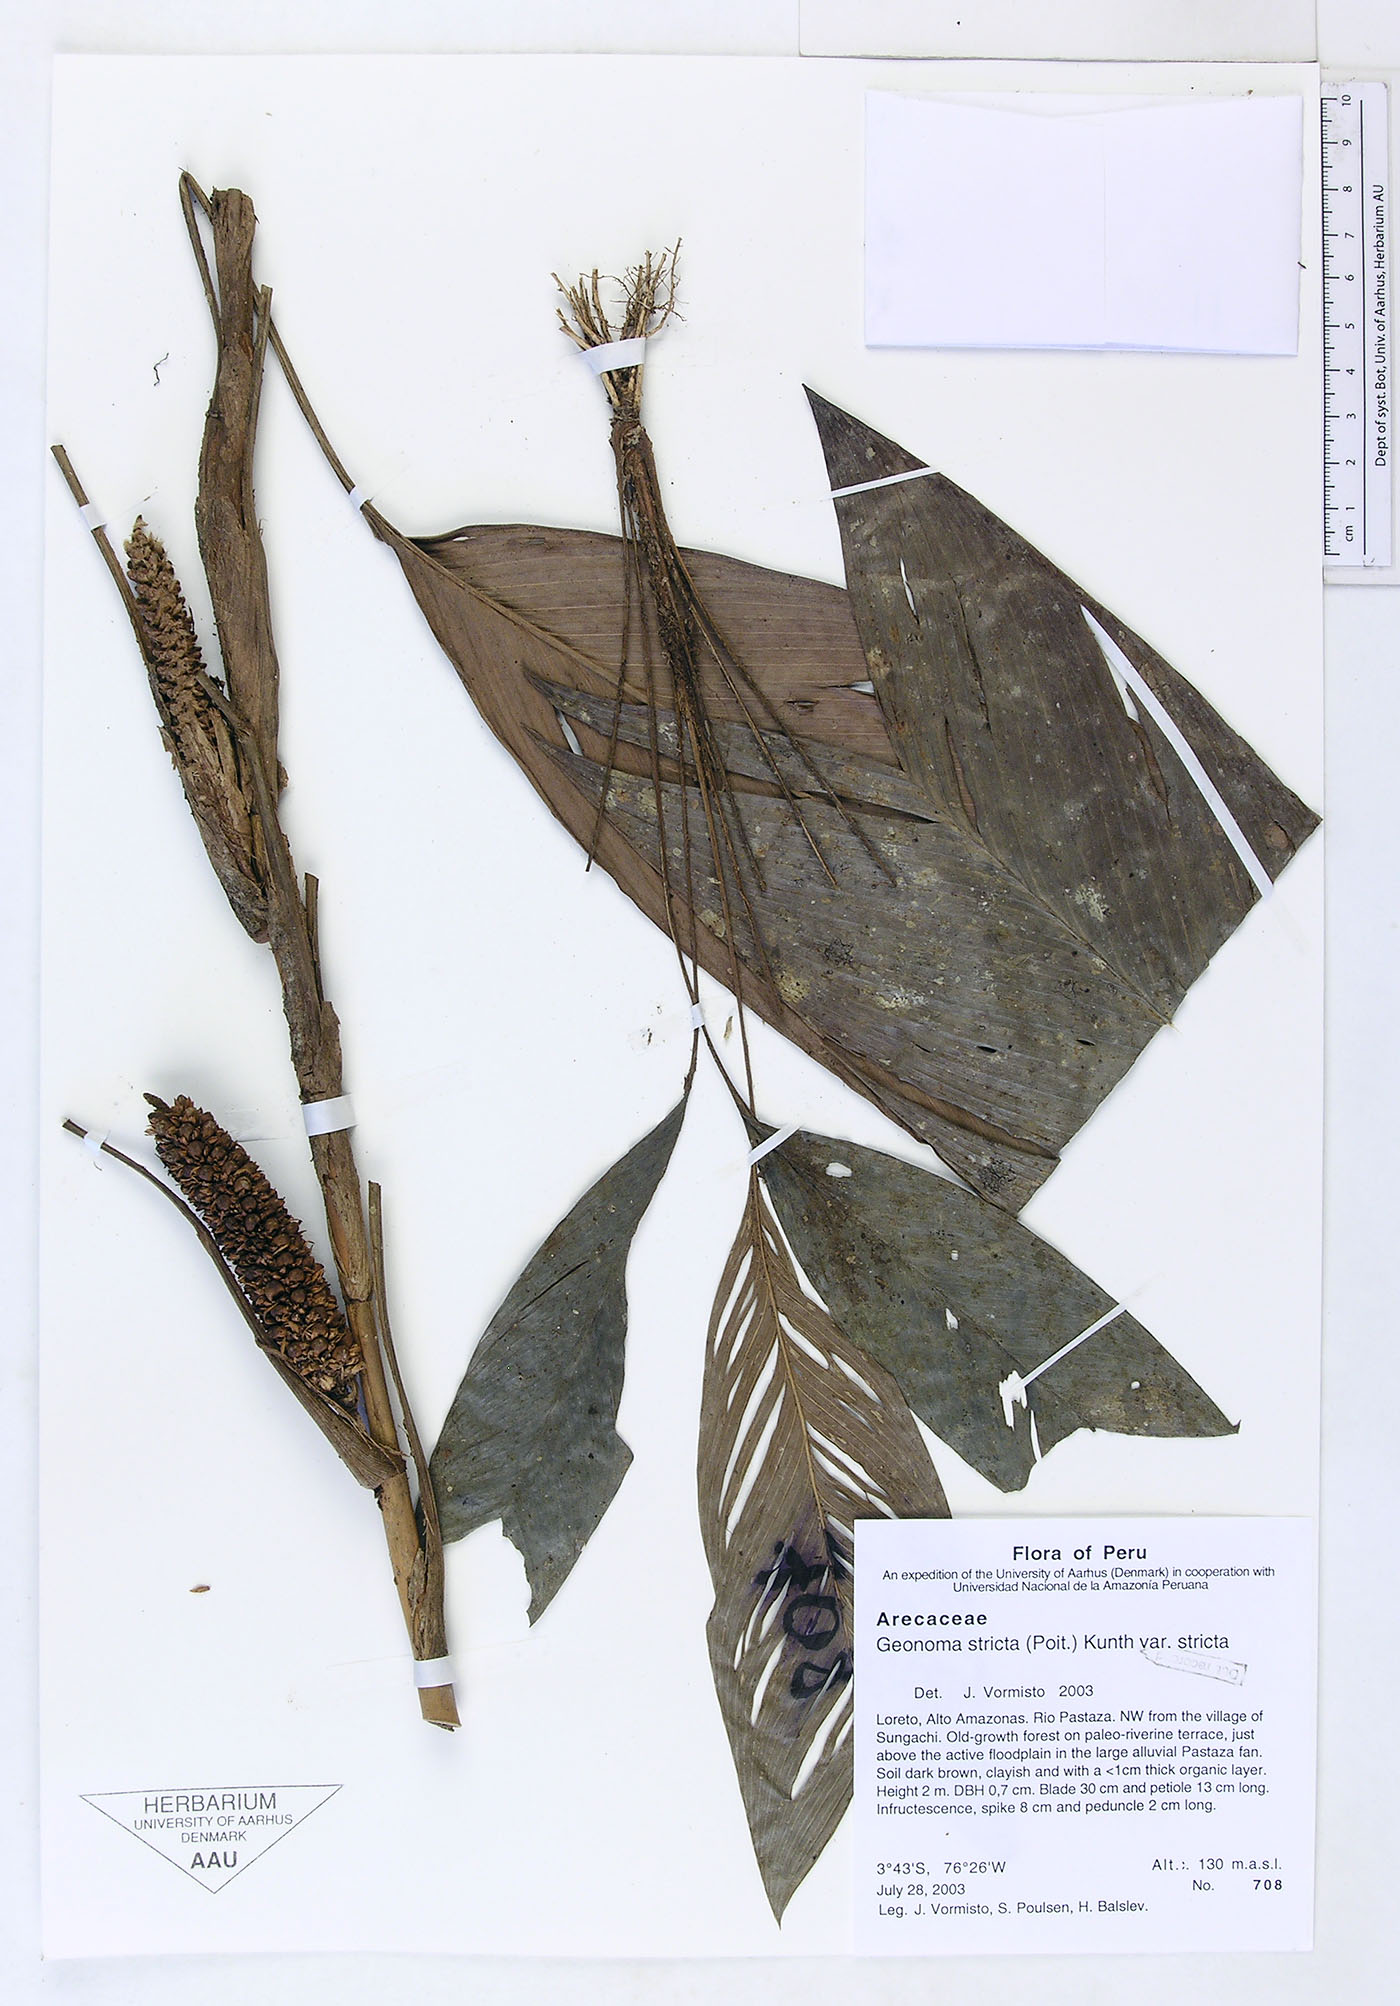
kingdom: Plantae
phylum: Tracheophyta
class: Liliopsida
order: Arecales
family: Arecaceae
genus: Geonoma
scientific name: Geonoma stricta
